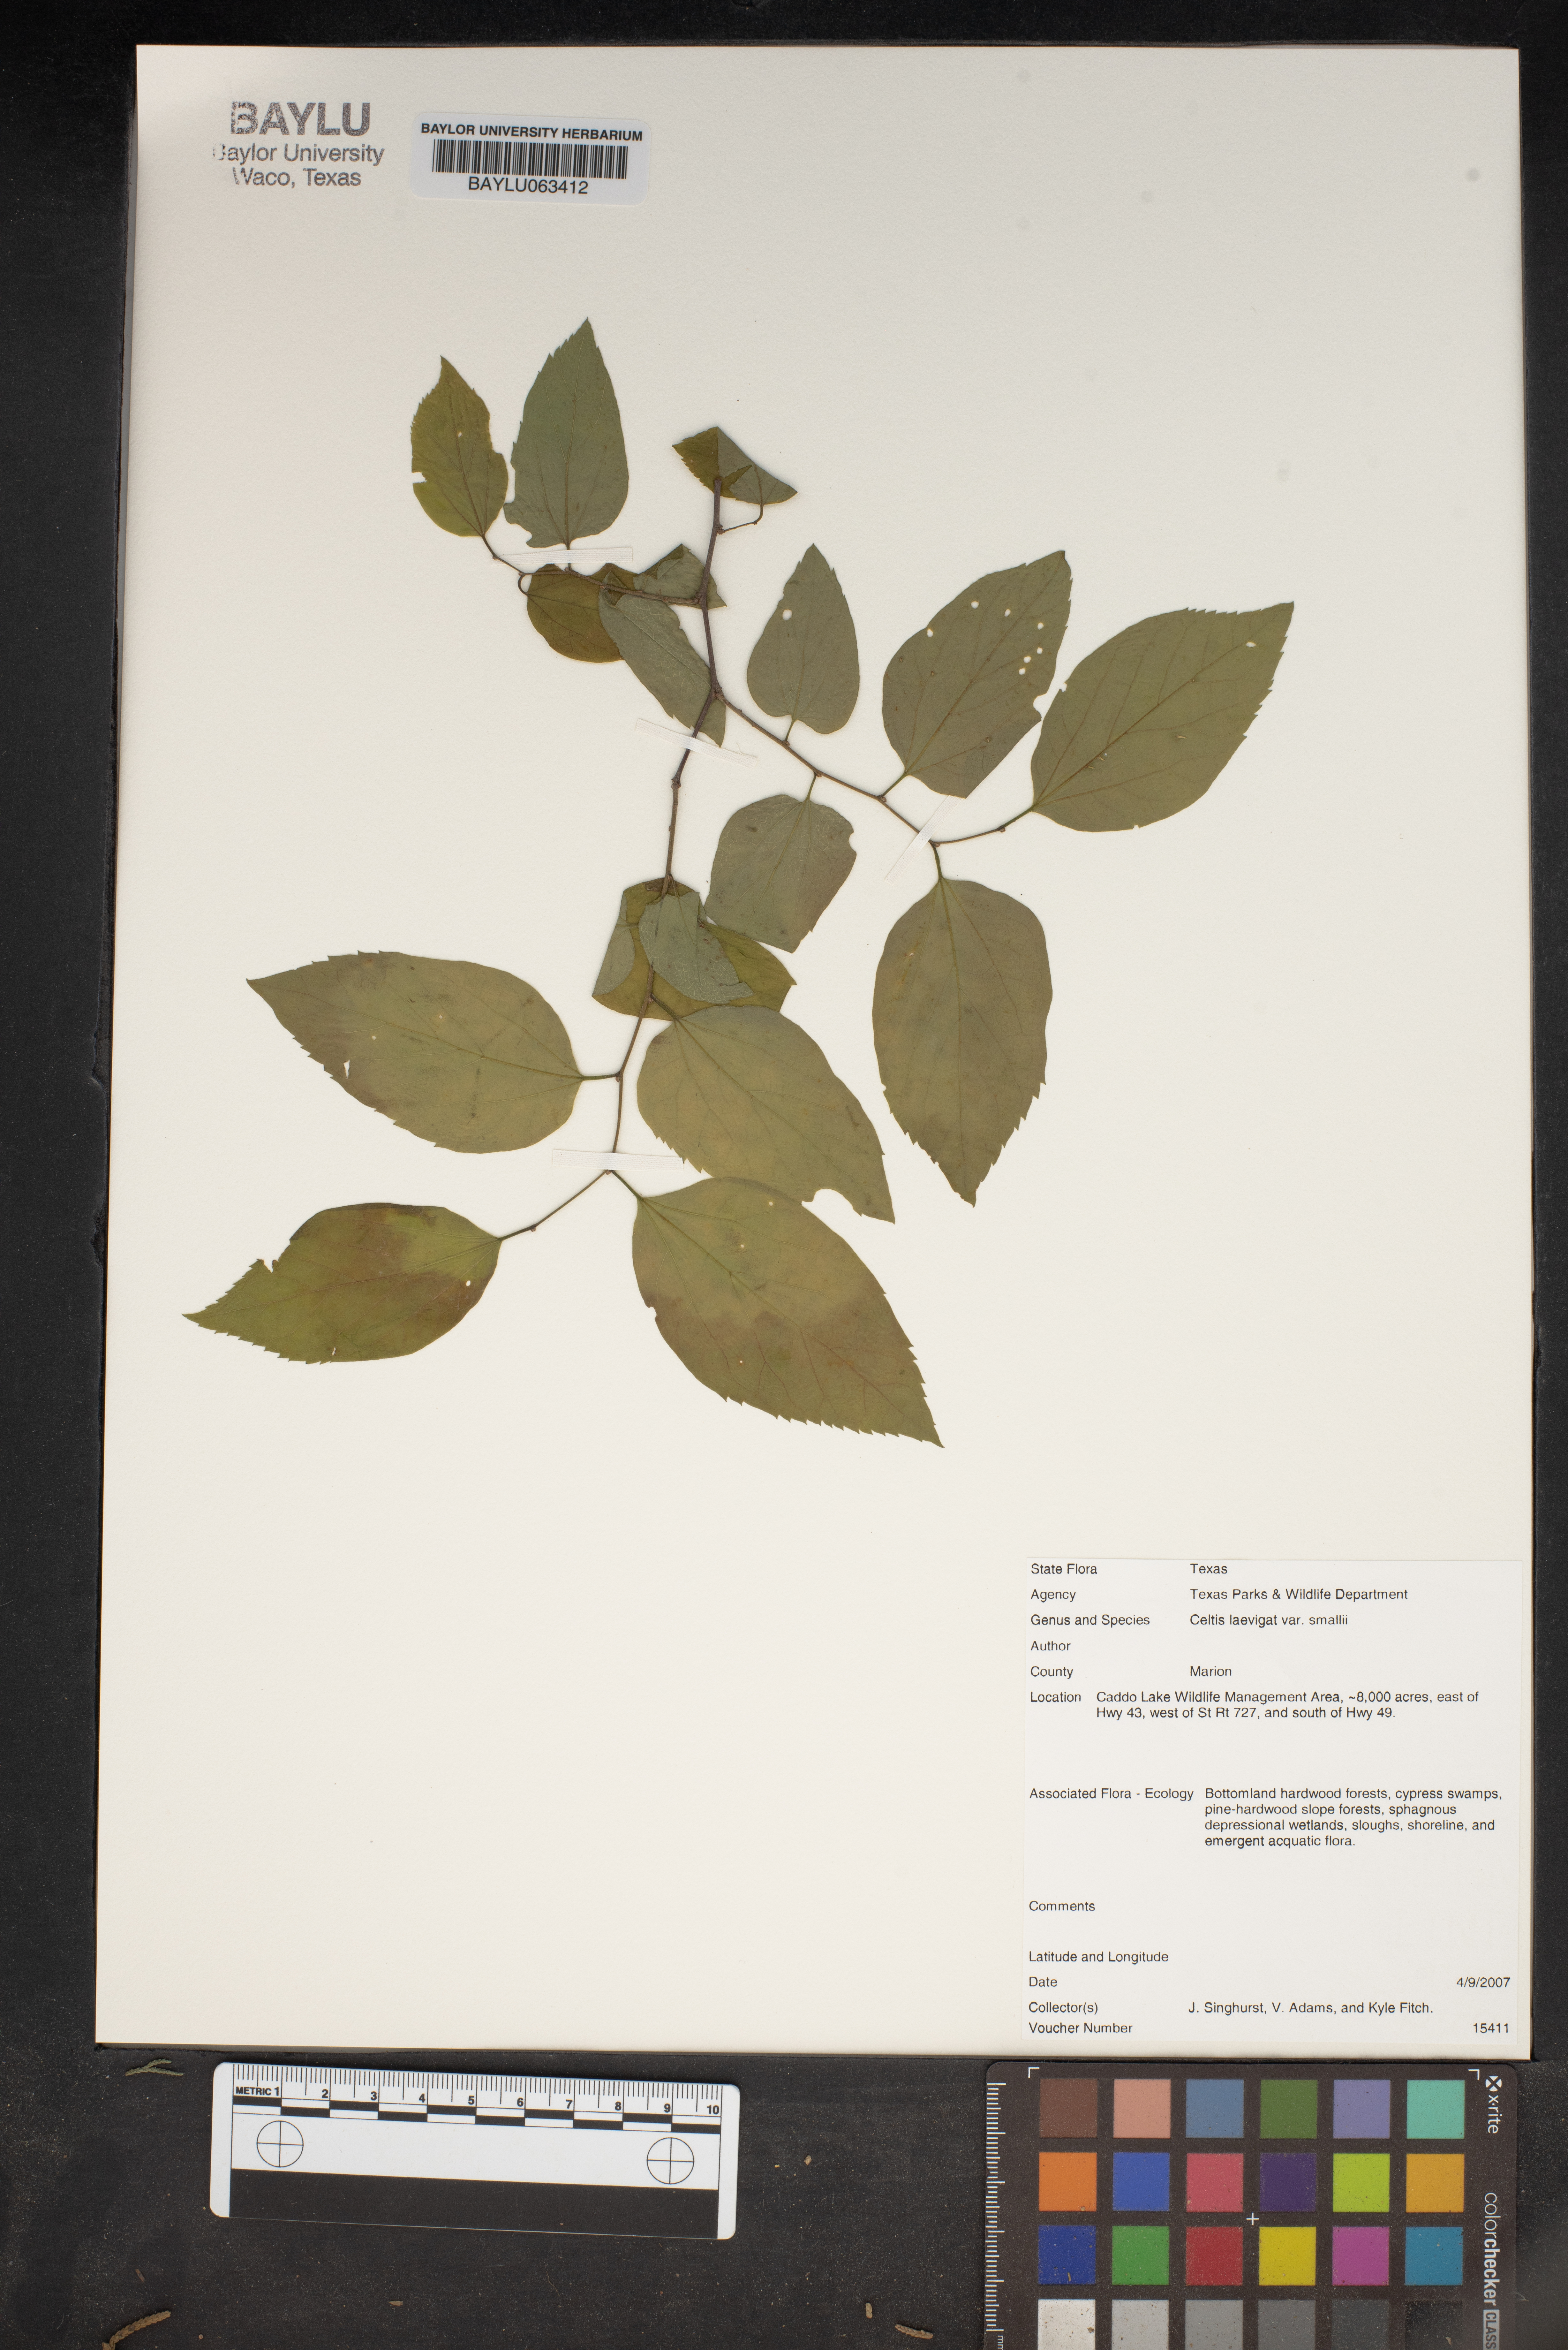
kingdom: Plantae
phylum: Tracheophyta
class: Magnoliopsida
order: Rosales
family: Cannabaceae
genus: Celtis
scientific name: Celtis
